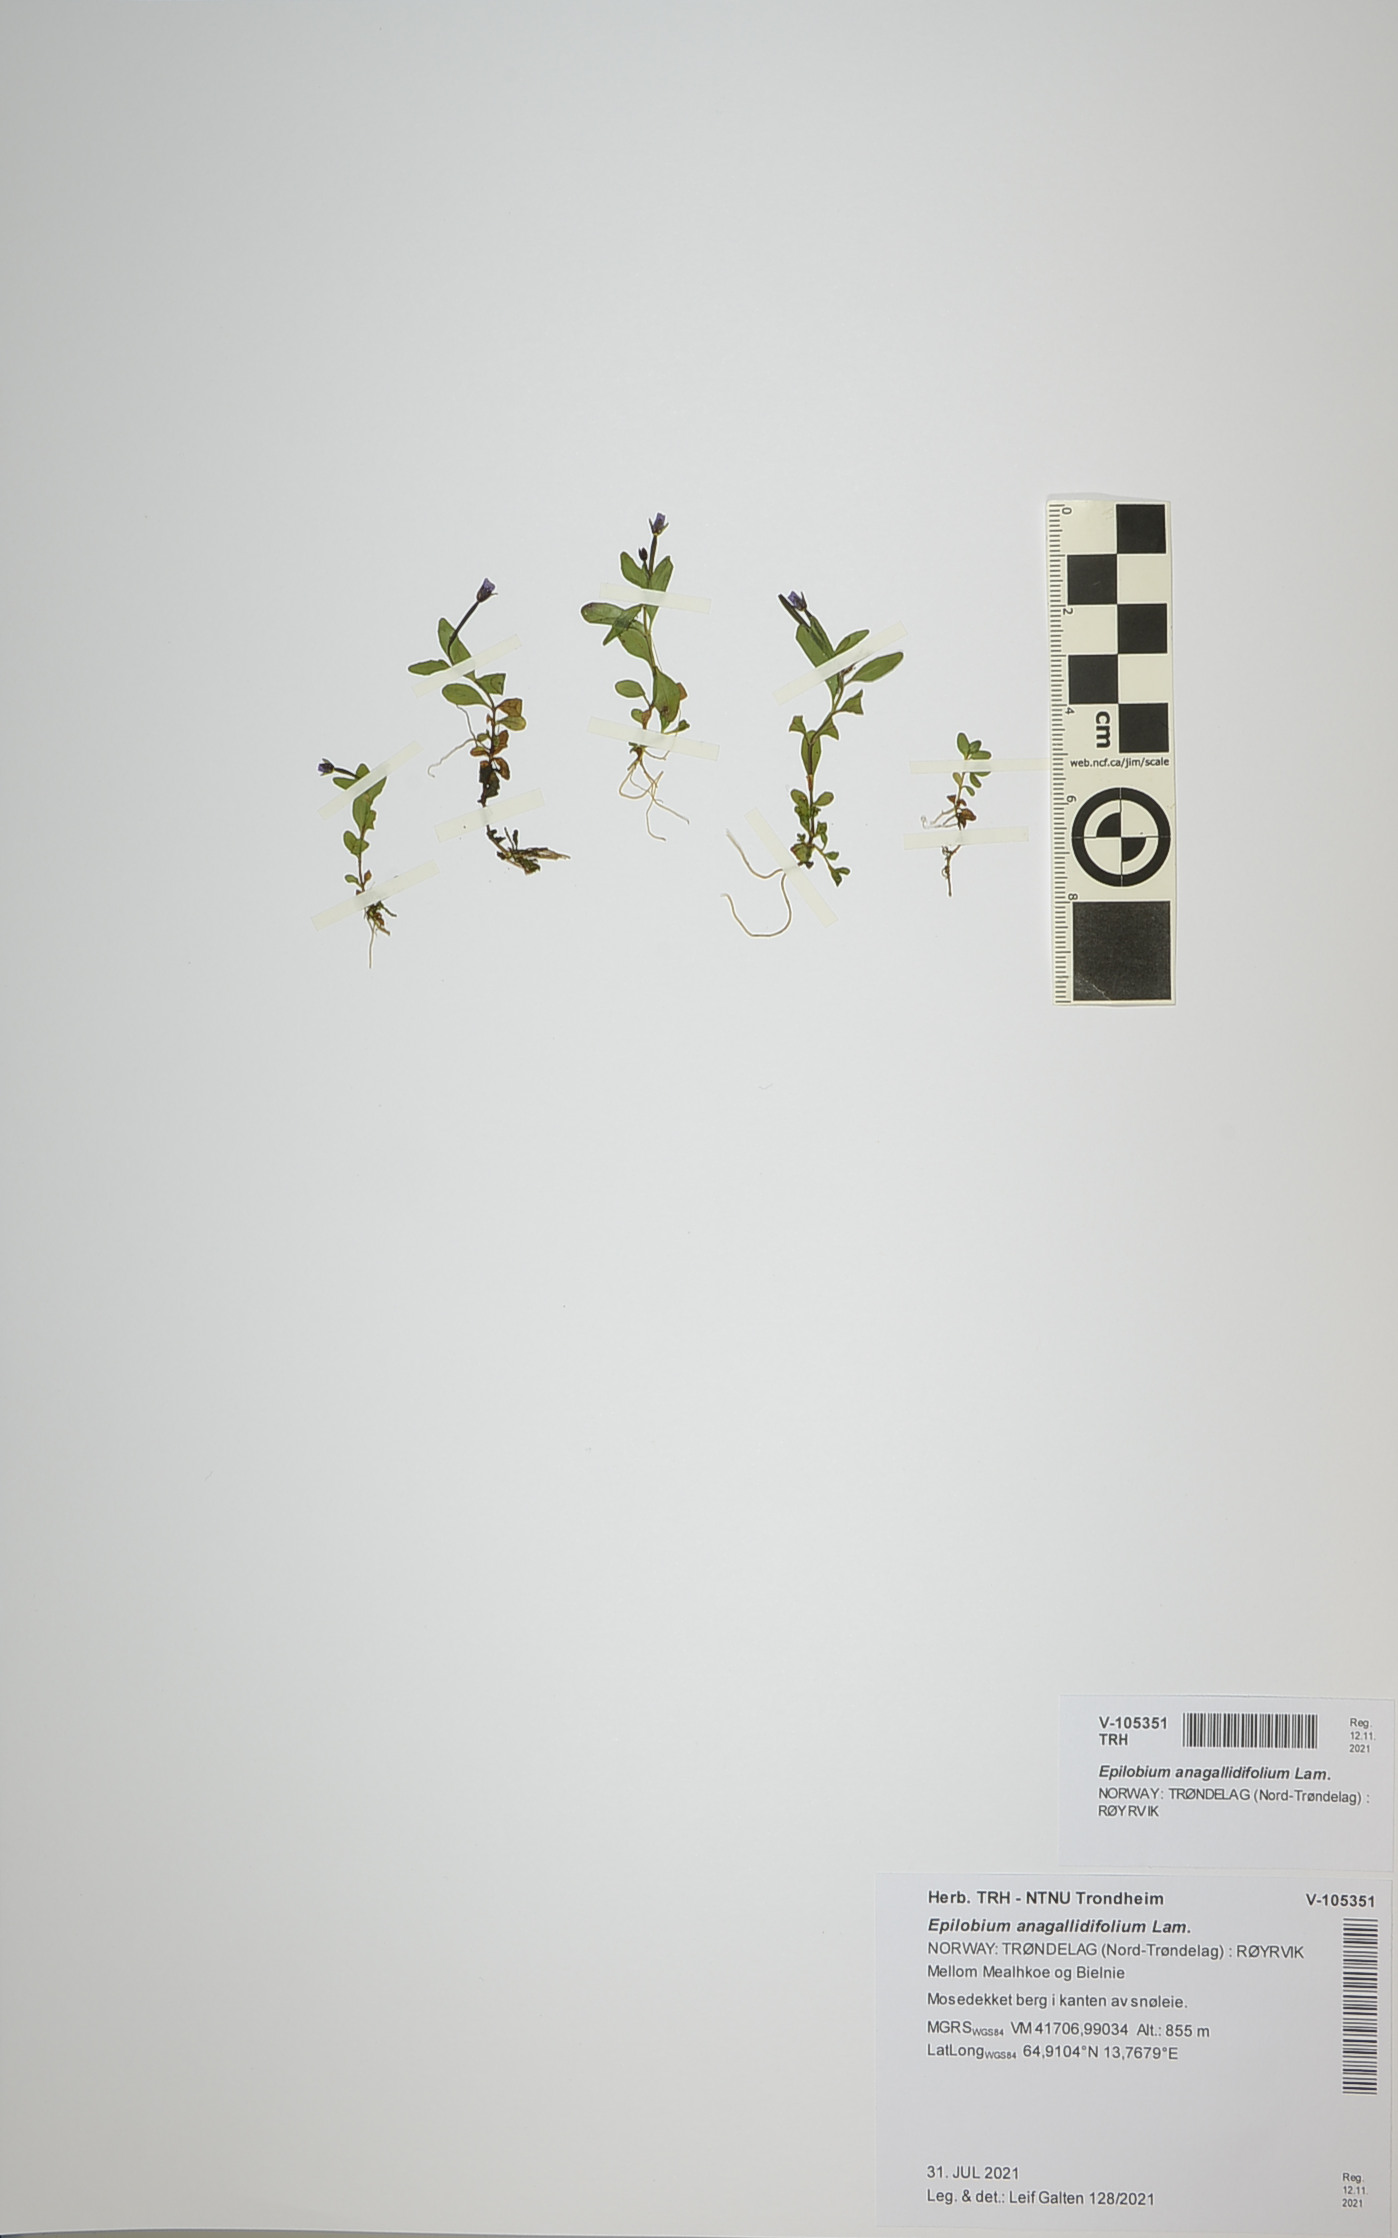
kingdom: Plantae
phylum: Tracheophyta
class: Magnoliopsida
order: Myrtales
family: Onagraceae
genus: Epilobium
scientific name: Epilobium anagallidifolium
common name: Alpine willowherb
